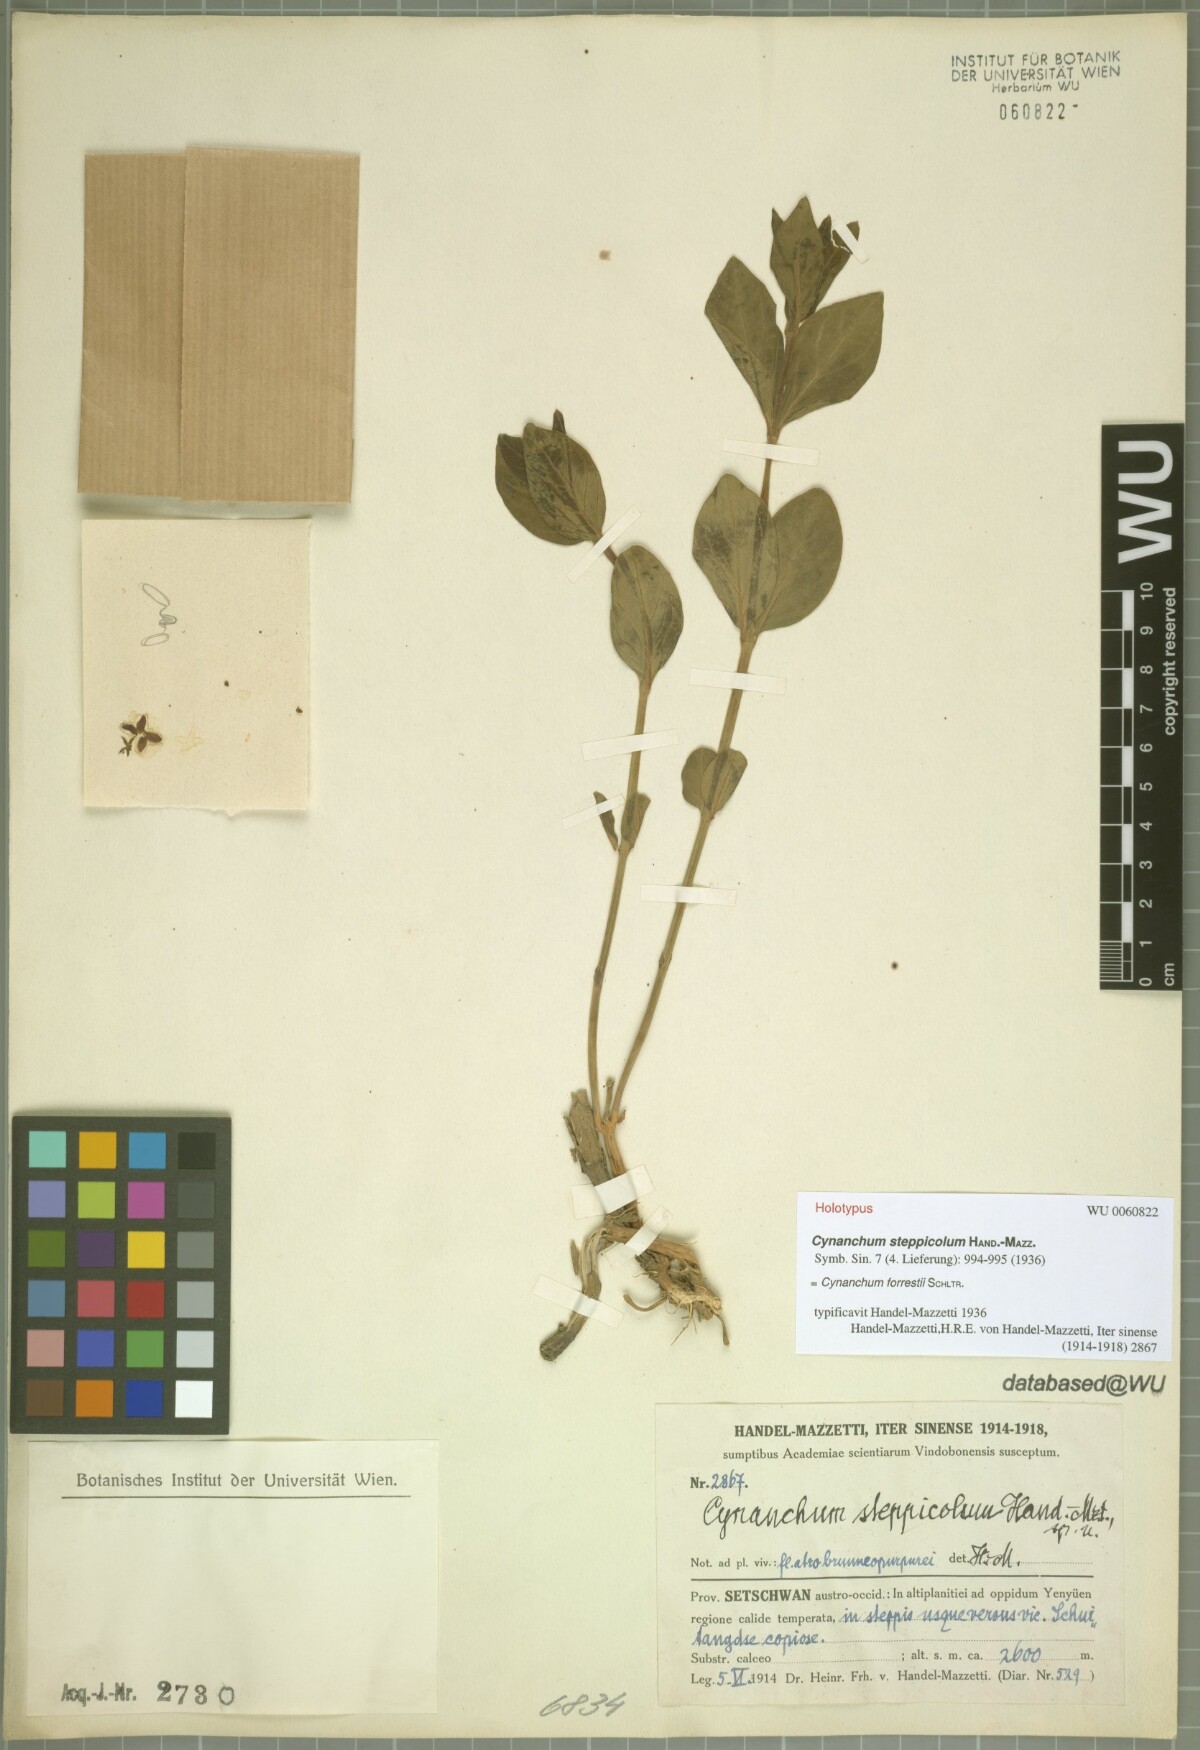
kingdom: Plantae
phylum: Tracheophyta
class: Magnoliopsida
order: Gentianales
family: Apocynaceae
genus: Vincetoxicum
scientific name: Vincetoxicum forrestii
